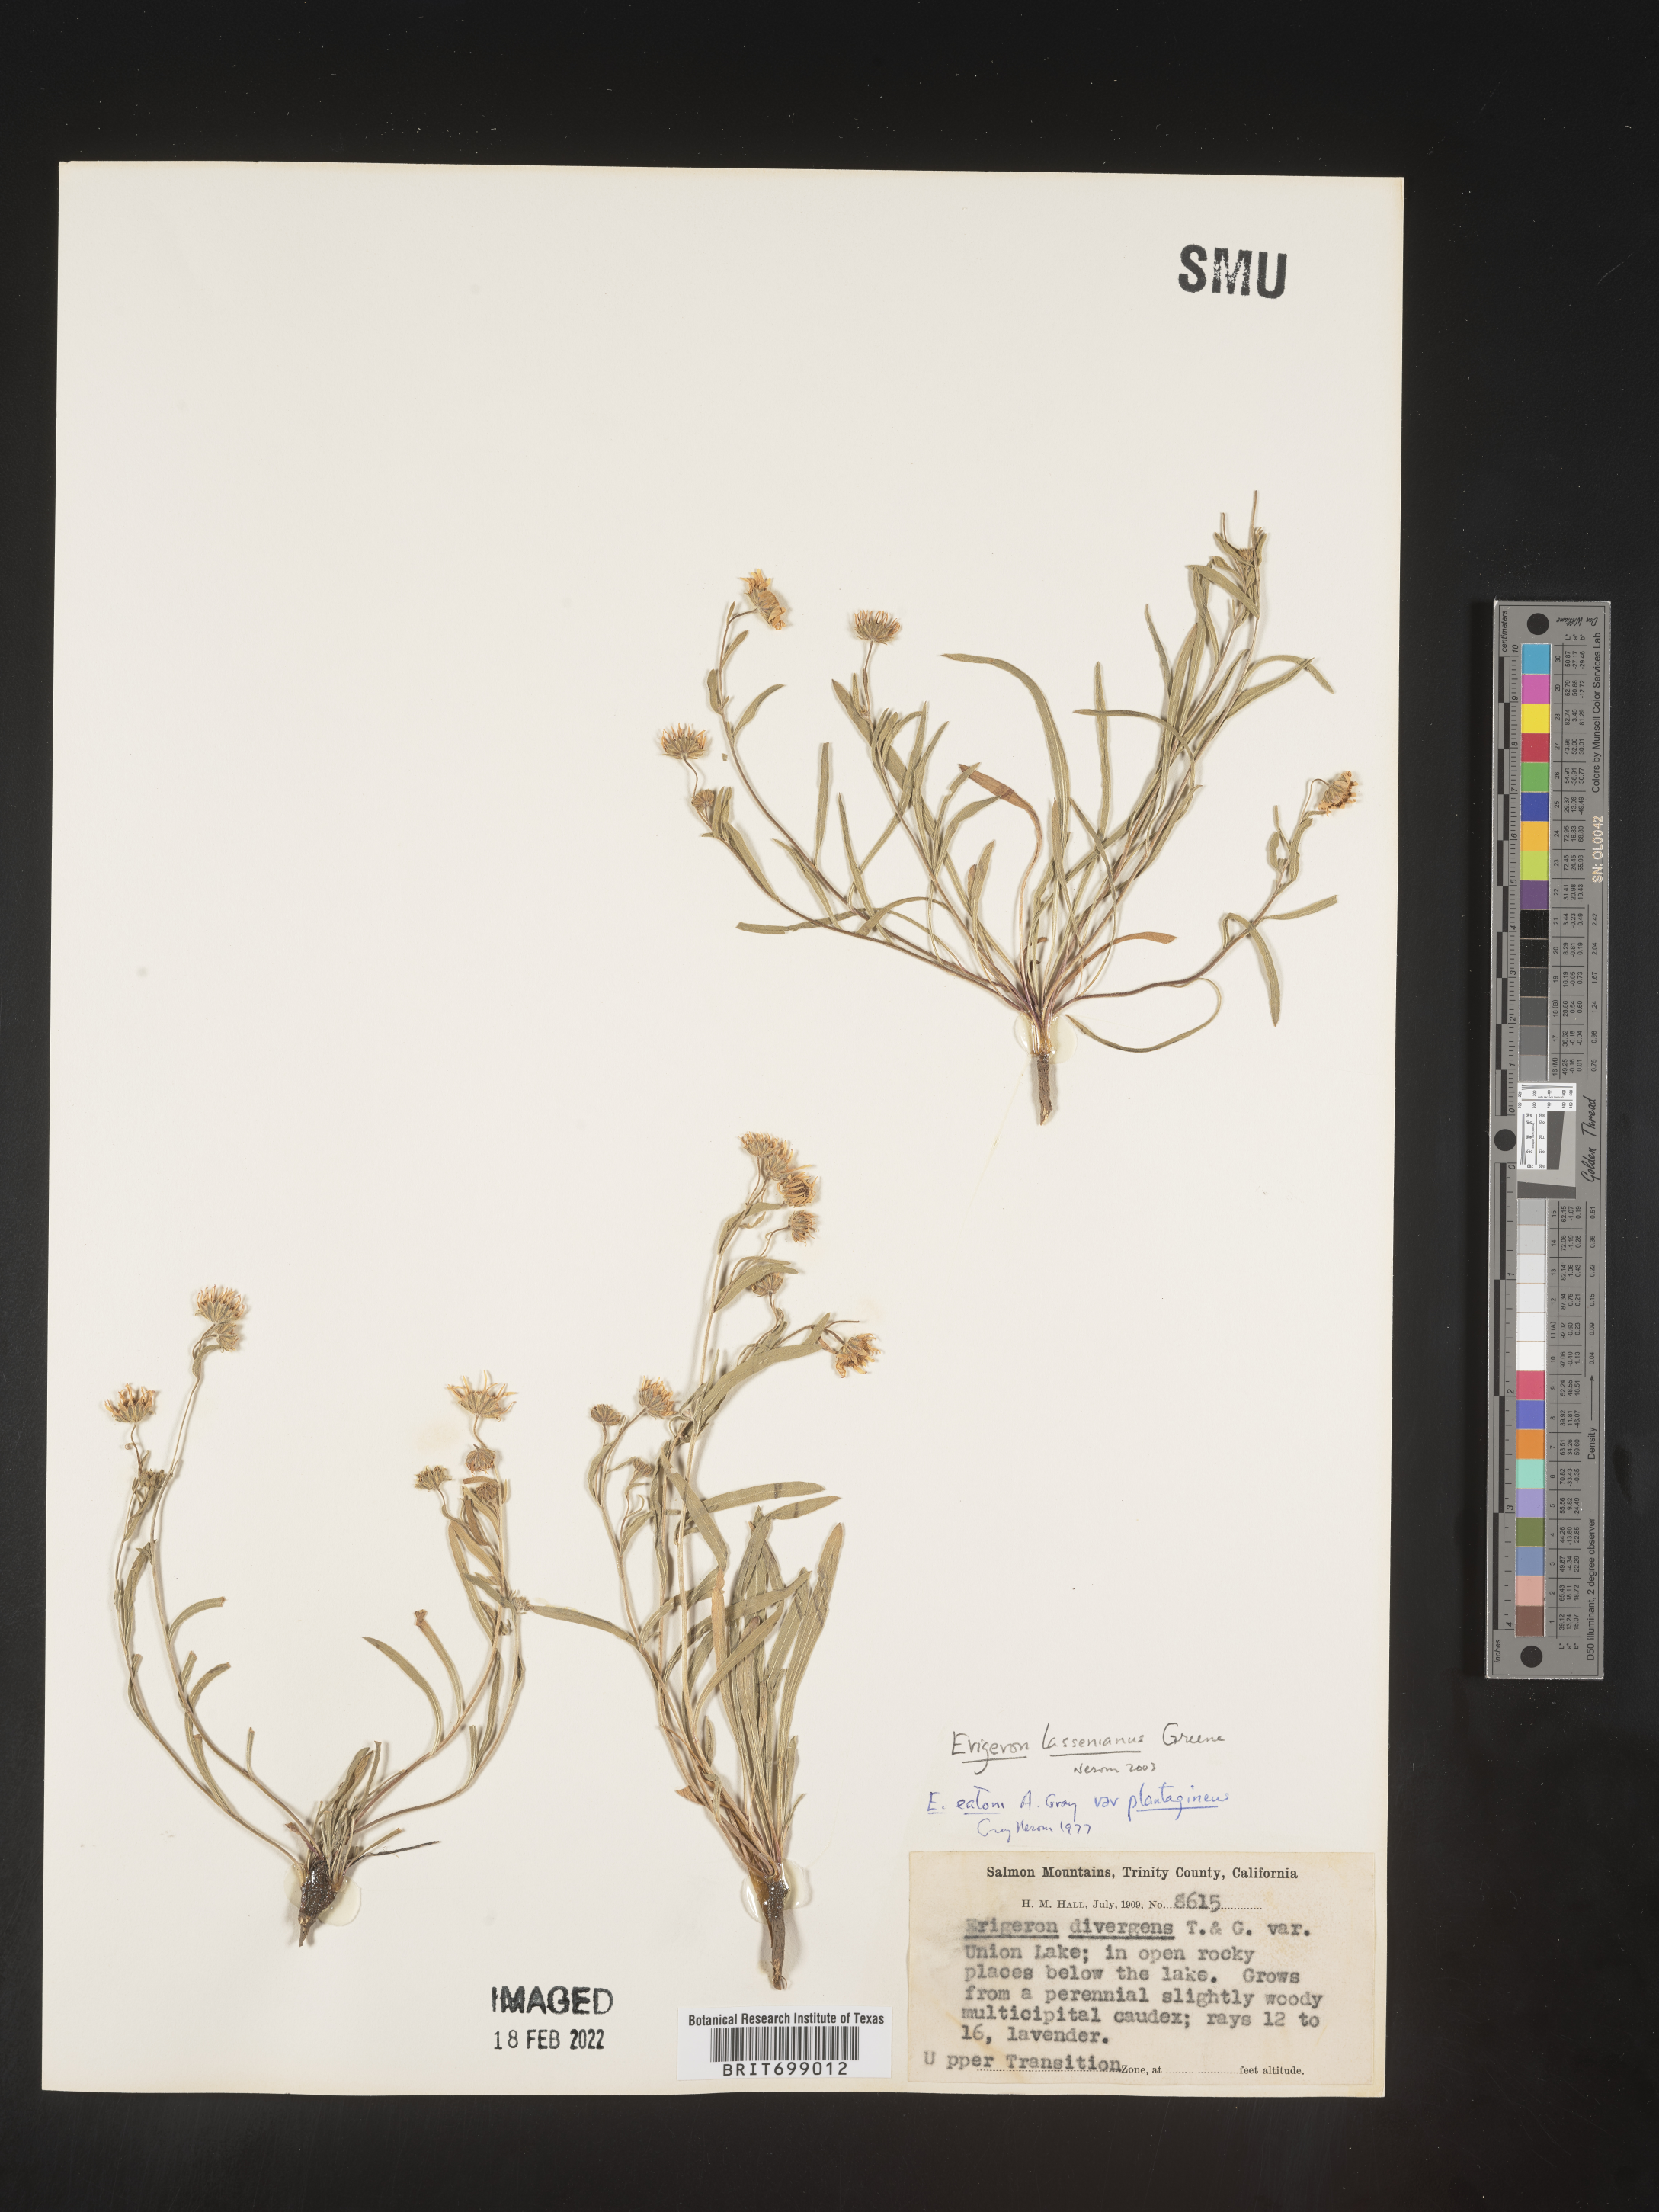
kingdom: Plantae
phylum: Tracheophyta
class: Magnoliopsida
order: Asterales
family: Asteraceae
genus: Erigeron
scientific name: Erigeron lassenianus
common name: Mt. lassen fleabane
